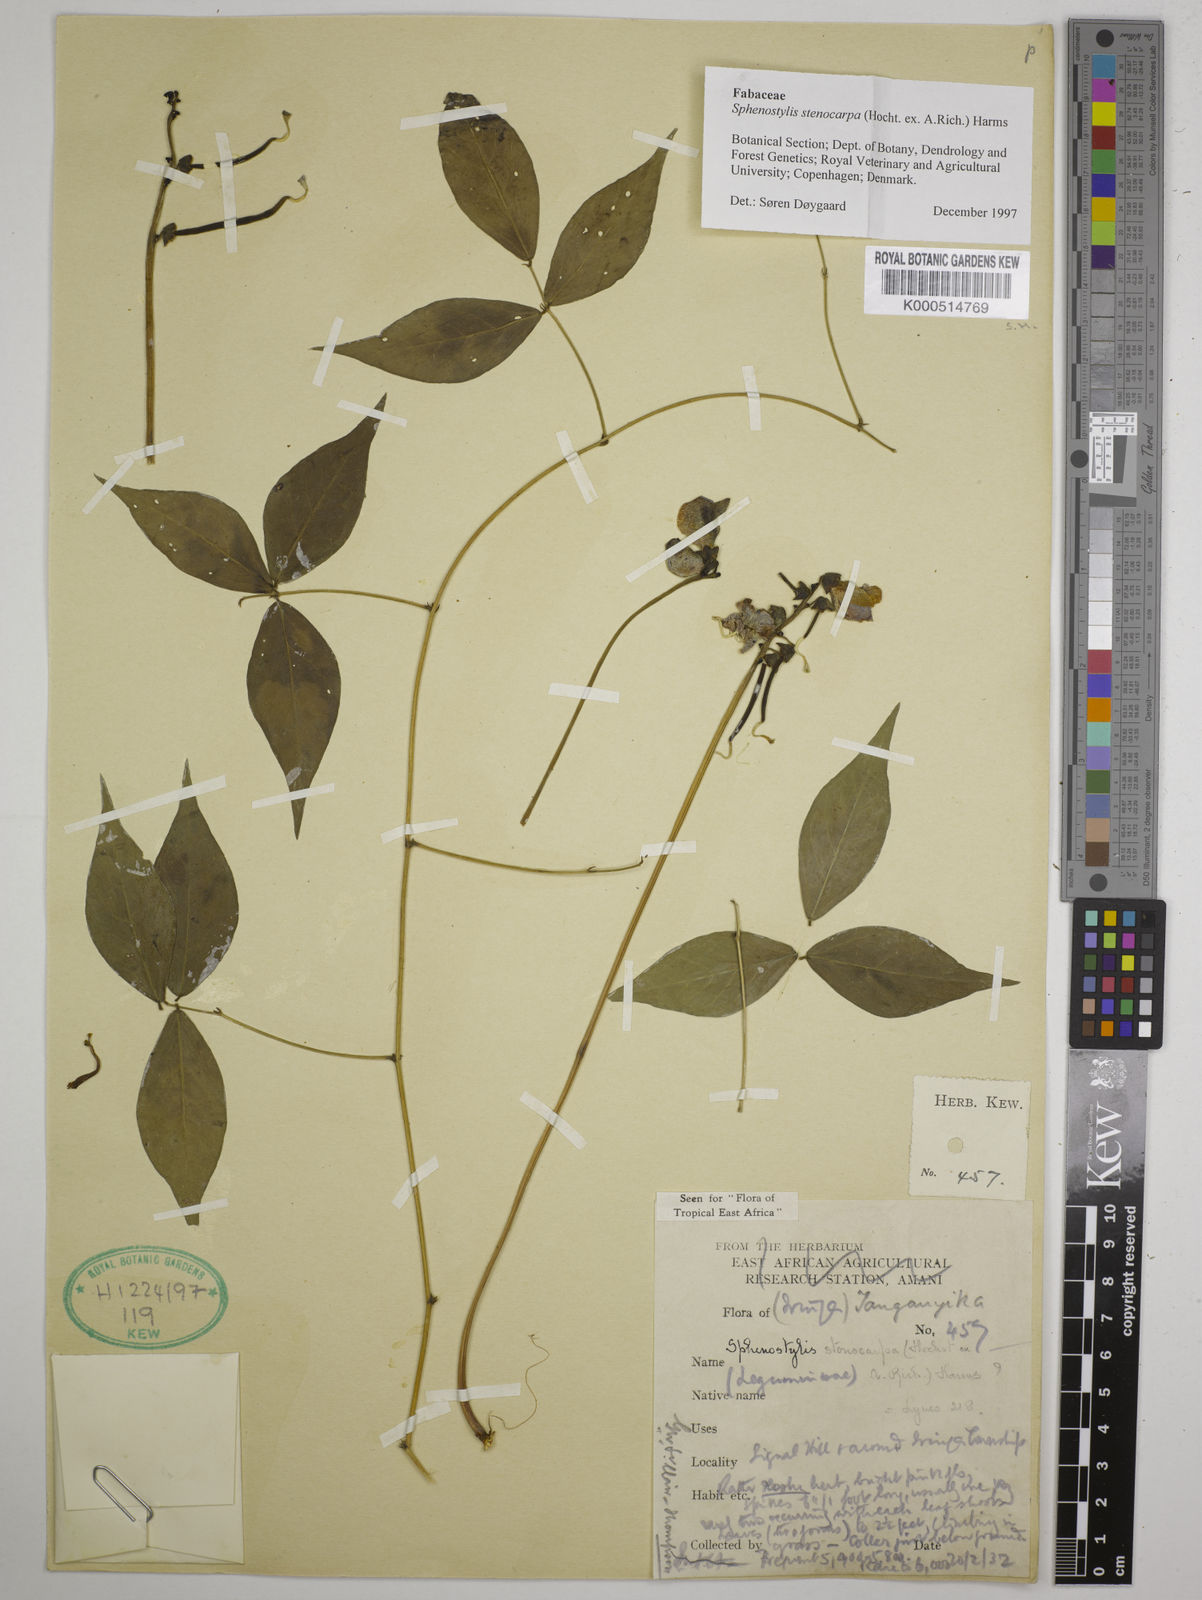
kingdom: Plantae
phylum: Tracheophyta
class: Magnoliopsida
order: Fabales
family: Fabaceae
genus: Sphenostylis
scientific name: Sphenostylis stenocarpa
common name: Yam-pea
